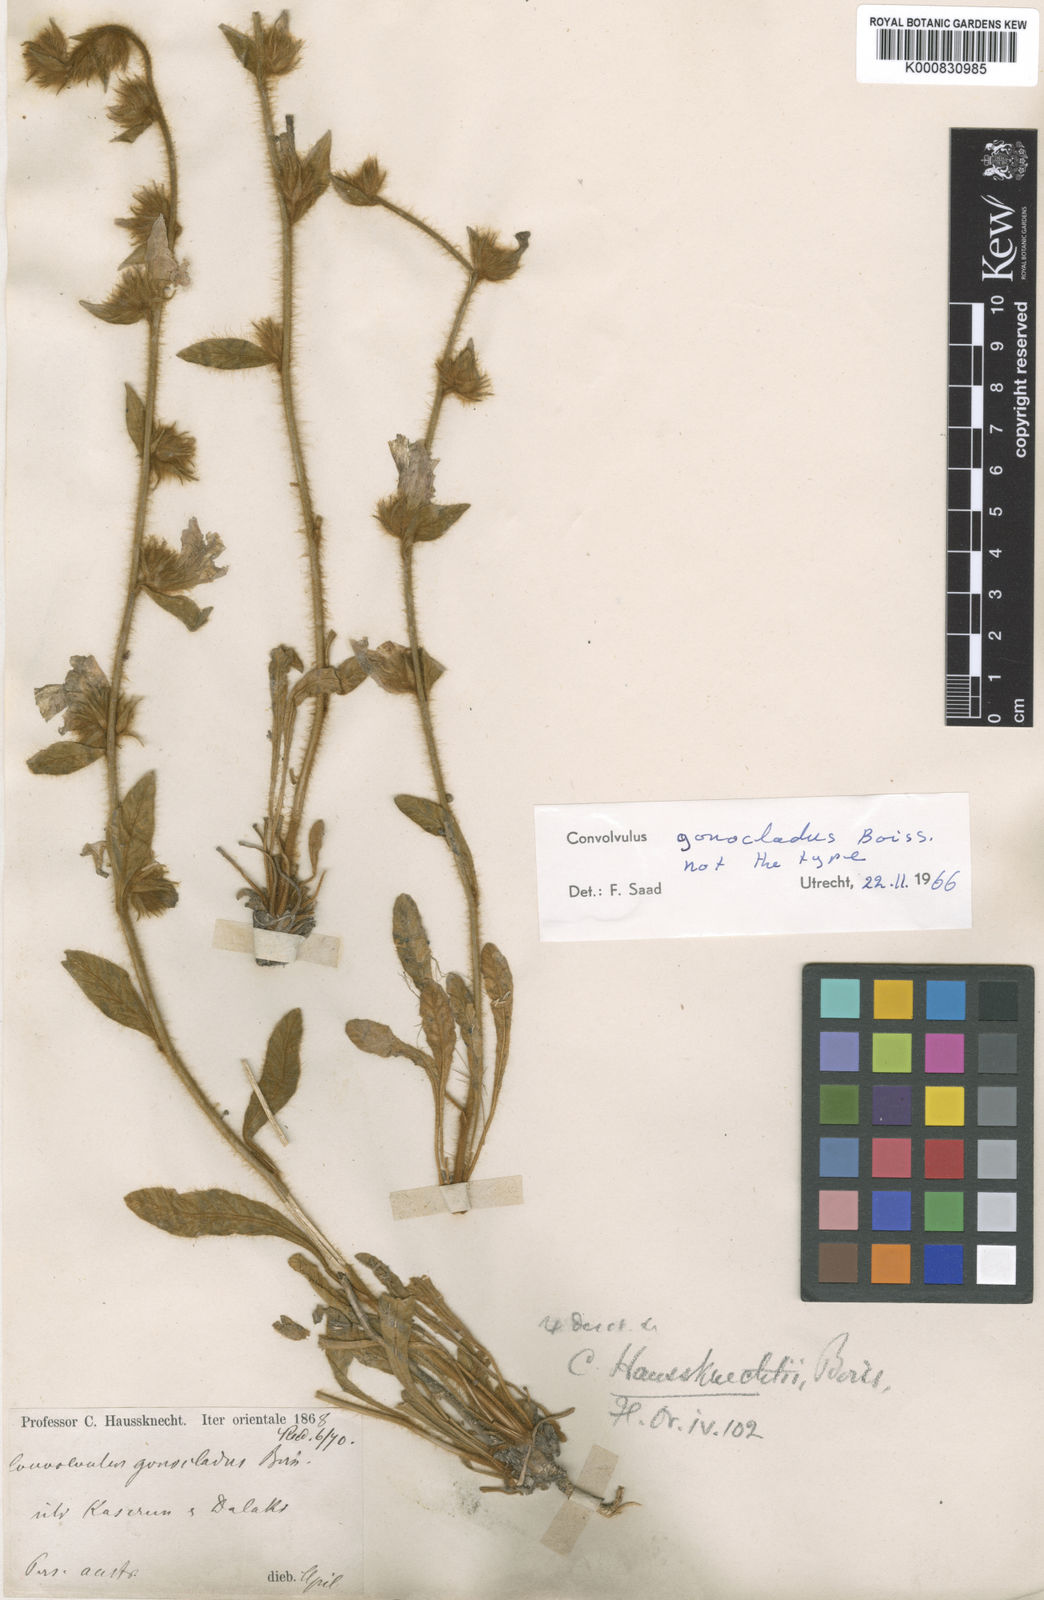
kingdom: Plantae
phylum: Tracheophyta
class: Magnoliopsida
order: Solanales
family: Convolvulaceae
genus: Convolvulus
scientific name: Convolvulus kotschyanus
